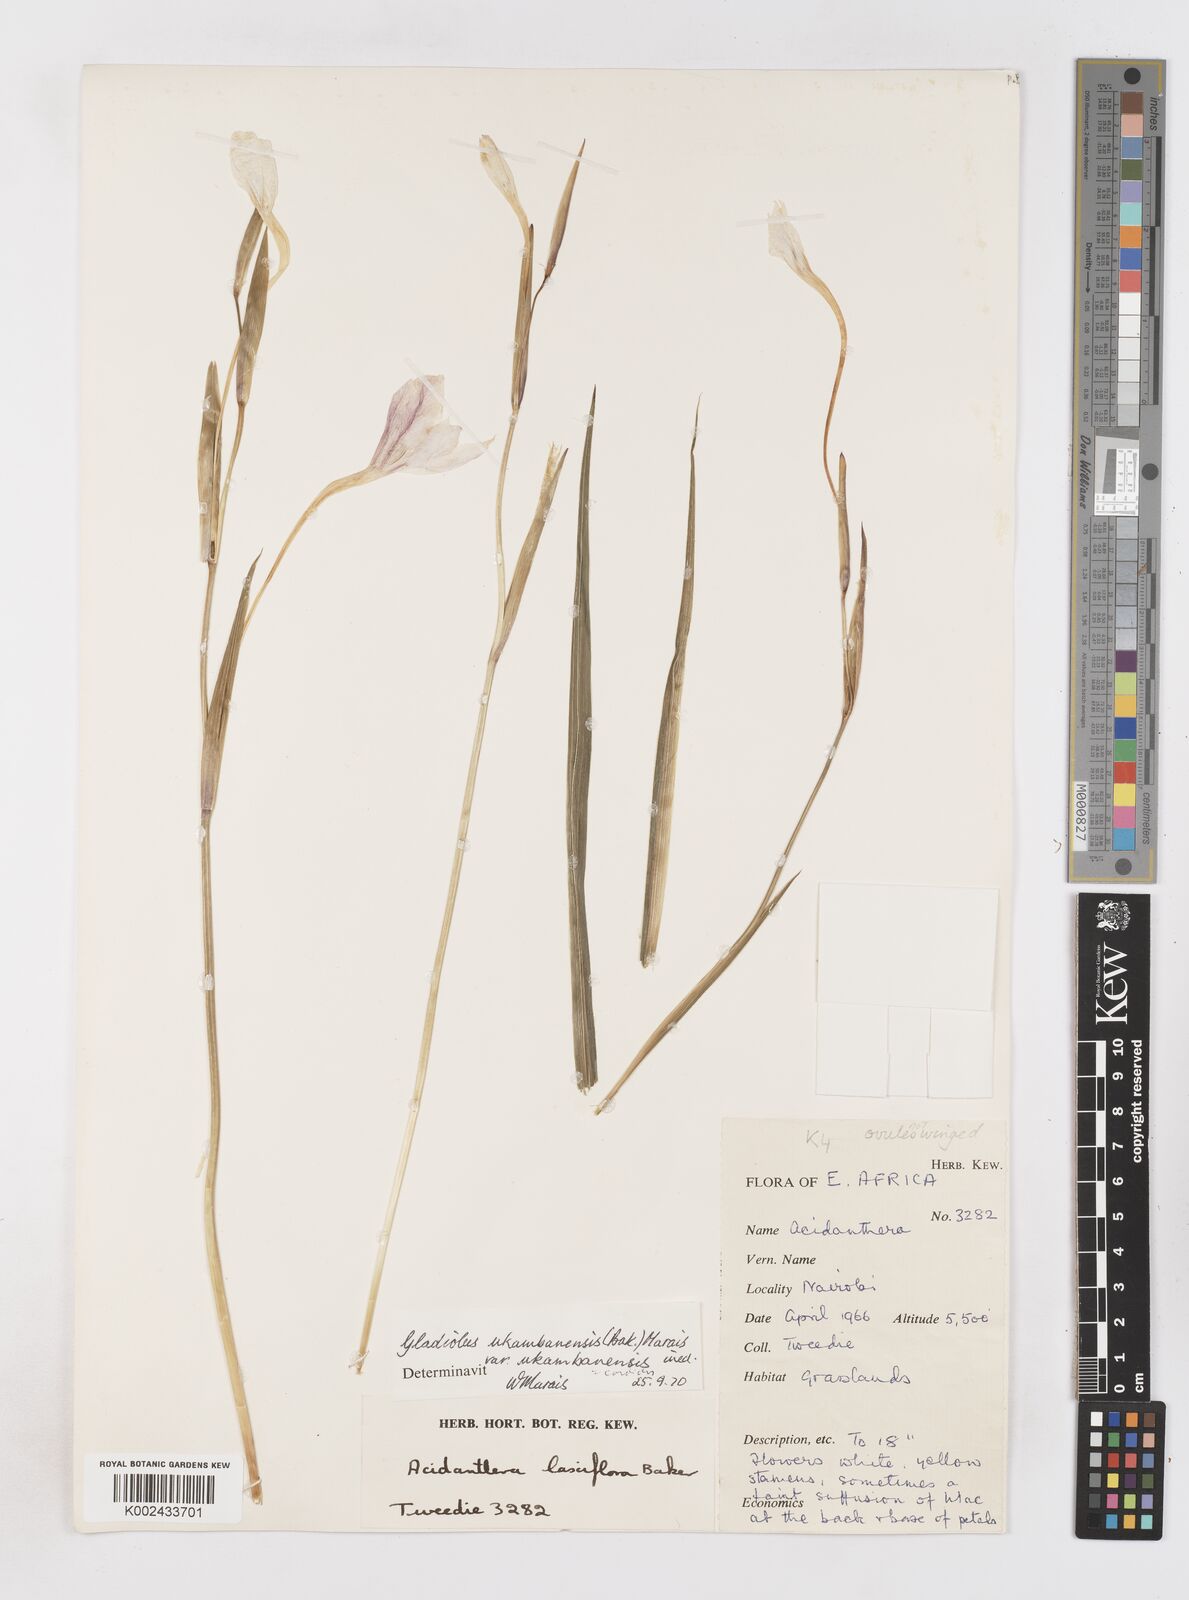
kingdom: Plantae
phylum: Tracheophyta
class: Liliopsida
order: Asparagales
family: Iridaceae
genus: Gladiolus
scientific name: Gladiolus candidus
